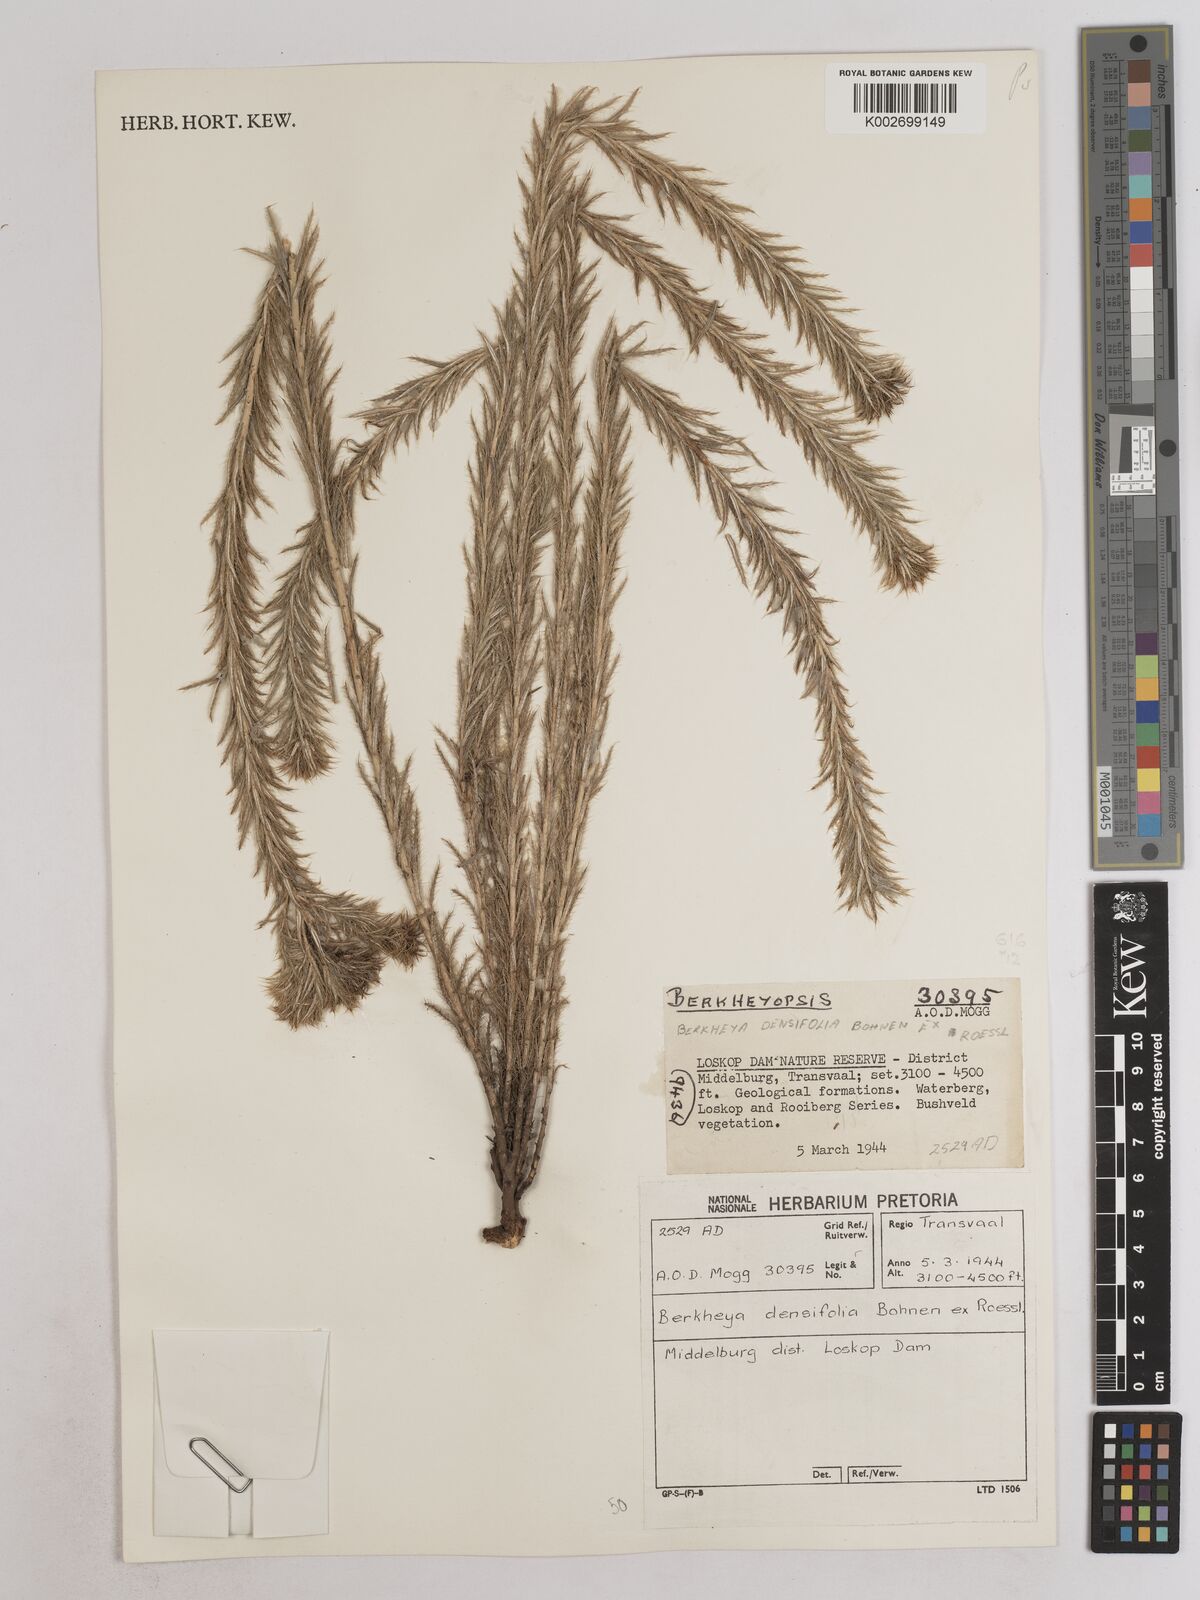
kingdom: Plantae
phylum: Tracheophyta
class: Magnoliopsida
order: Asterales
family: Asteraceae
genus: Berkheya
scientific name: Berkheya densifolia
